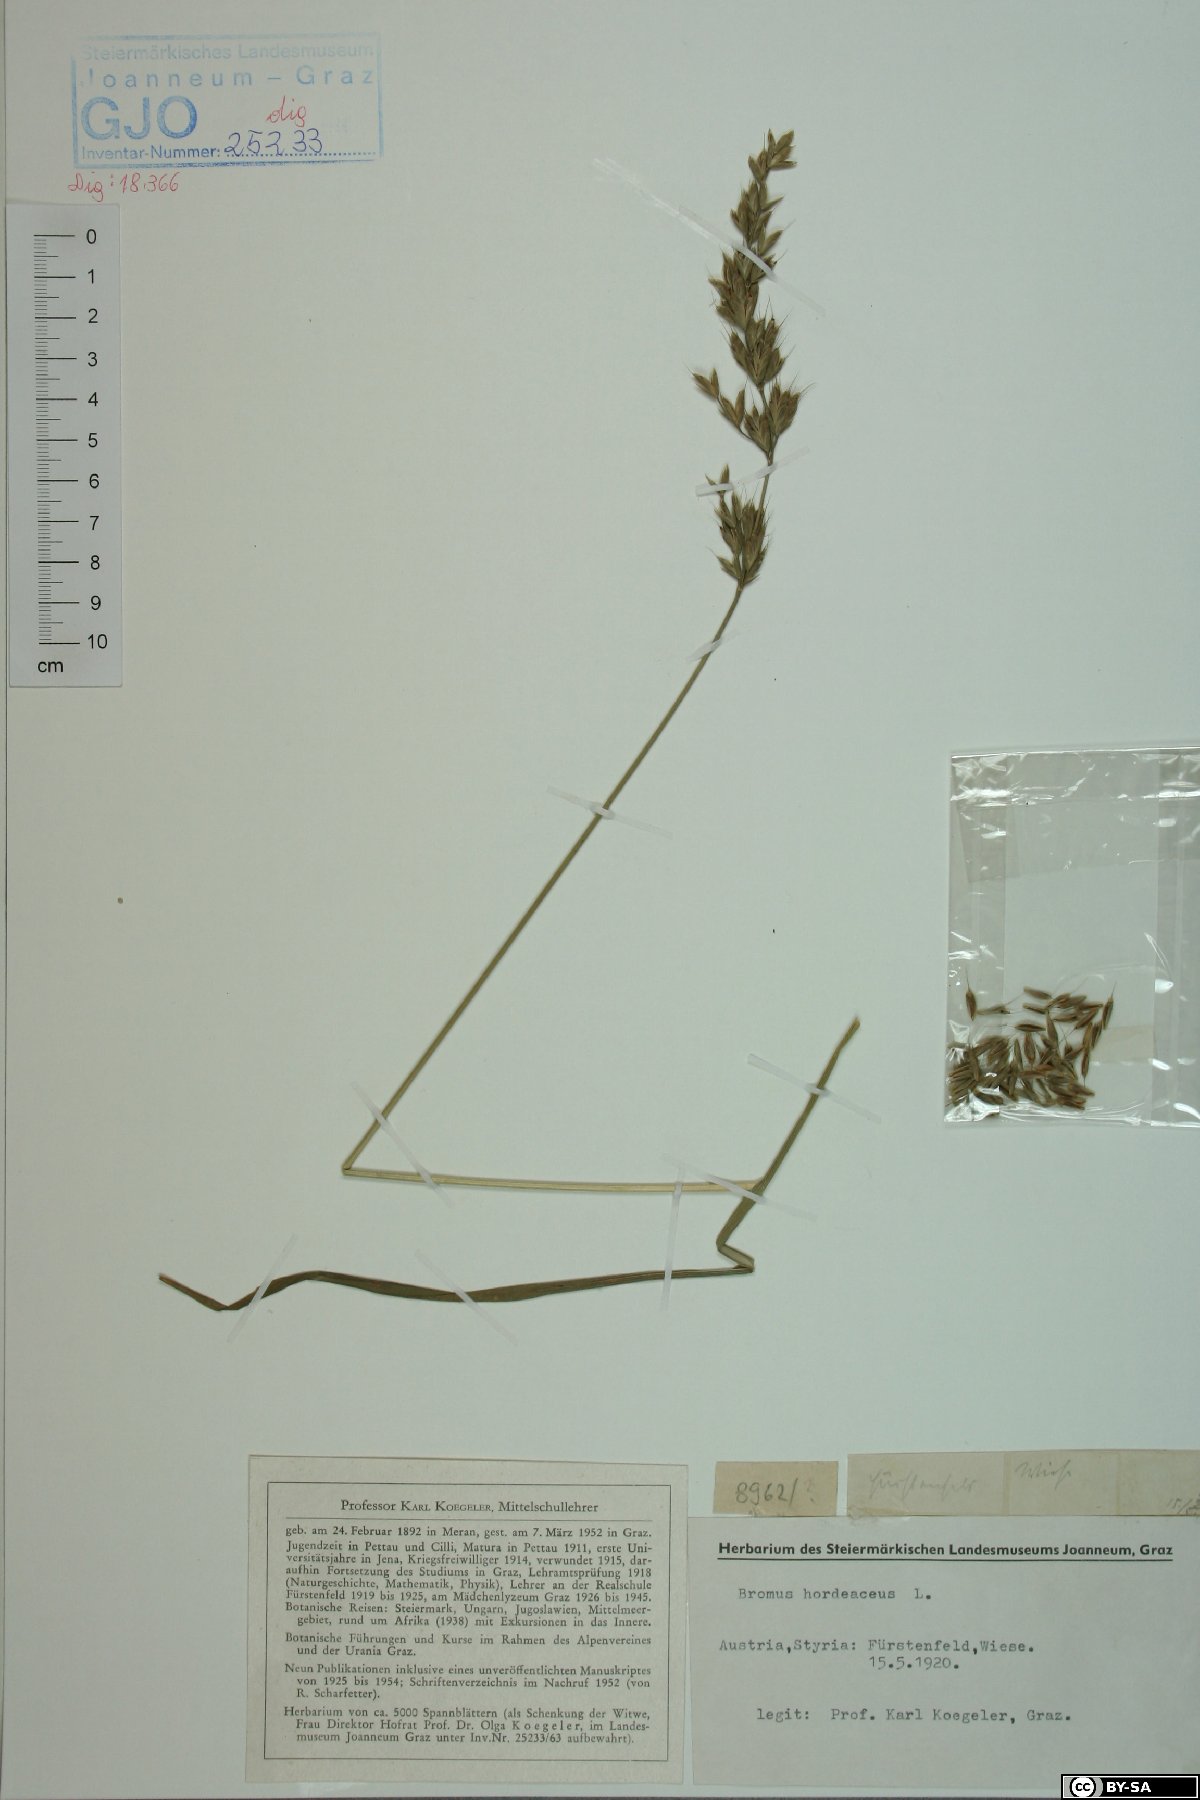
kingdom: Plantae
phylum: Tracheophyta
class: Liliopsida
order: Poales
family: Poaceae
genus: Bromus
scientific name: Bromus hordeaceus
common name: Soft brome
